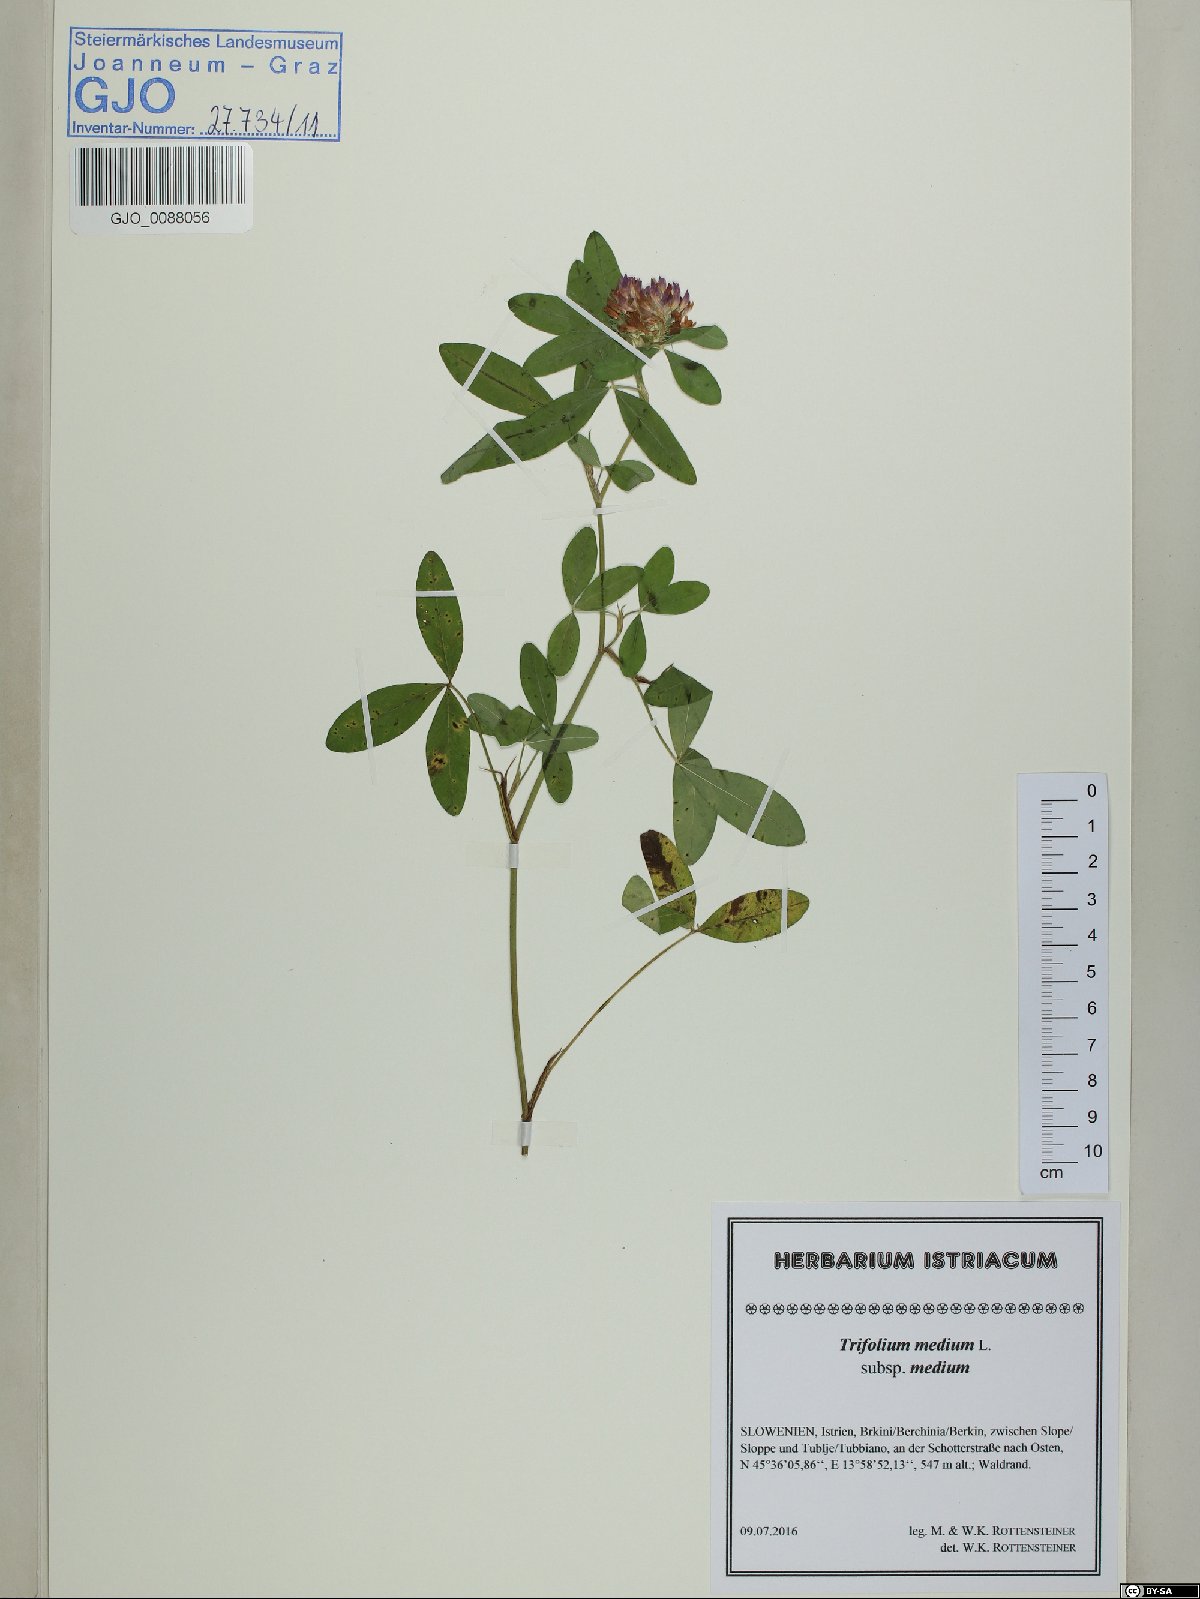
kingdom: Plantae
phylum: Tracheophyta
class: Magnoliopsida
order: Fabales
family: Fabaceae
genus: Trifolium
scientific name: Trifolium medium
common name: Zigzag clover
